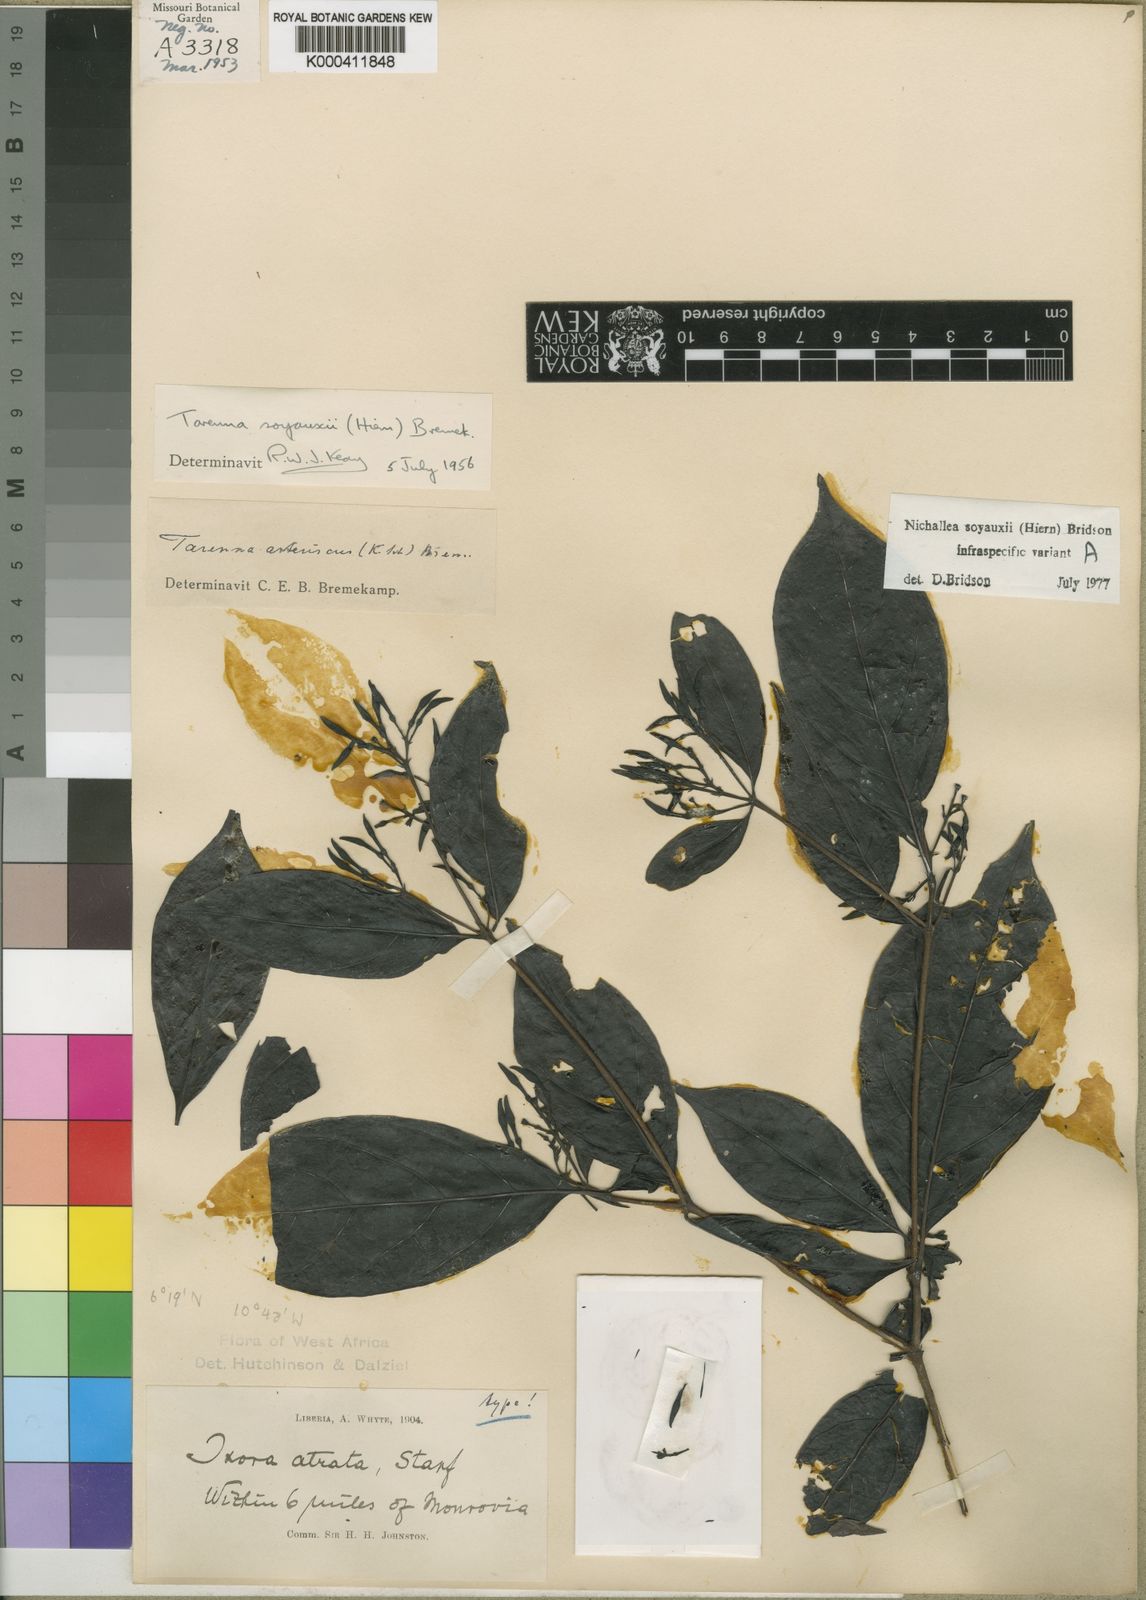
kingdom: Plantae
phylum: Tracheophyta
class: Magnoliopsida
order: Gentianales
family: Rubiaceae
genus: Nichallea
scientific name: Nichallea soyauxii
